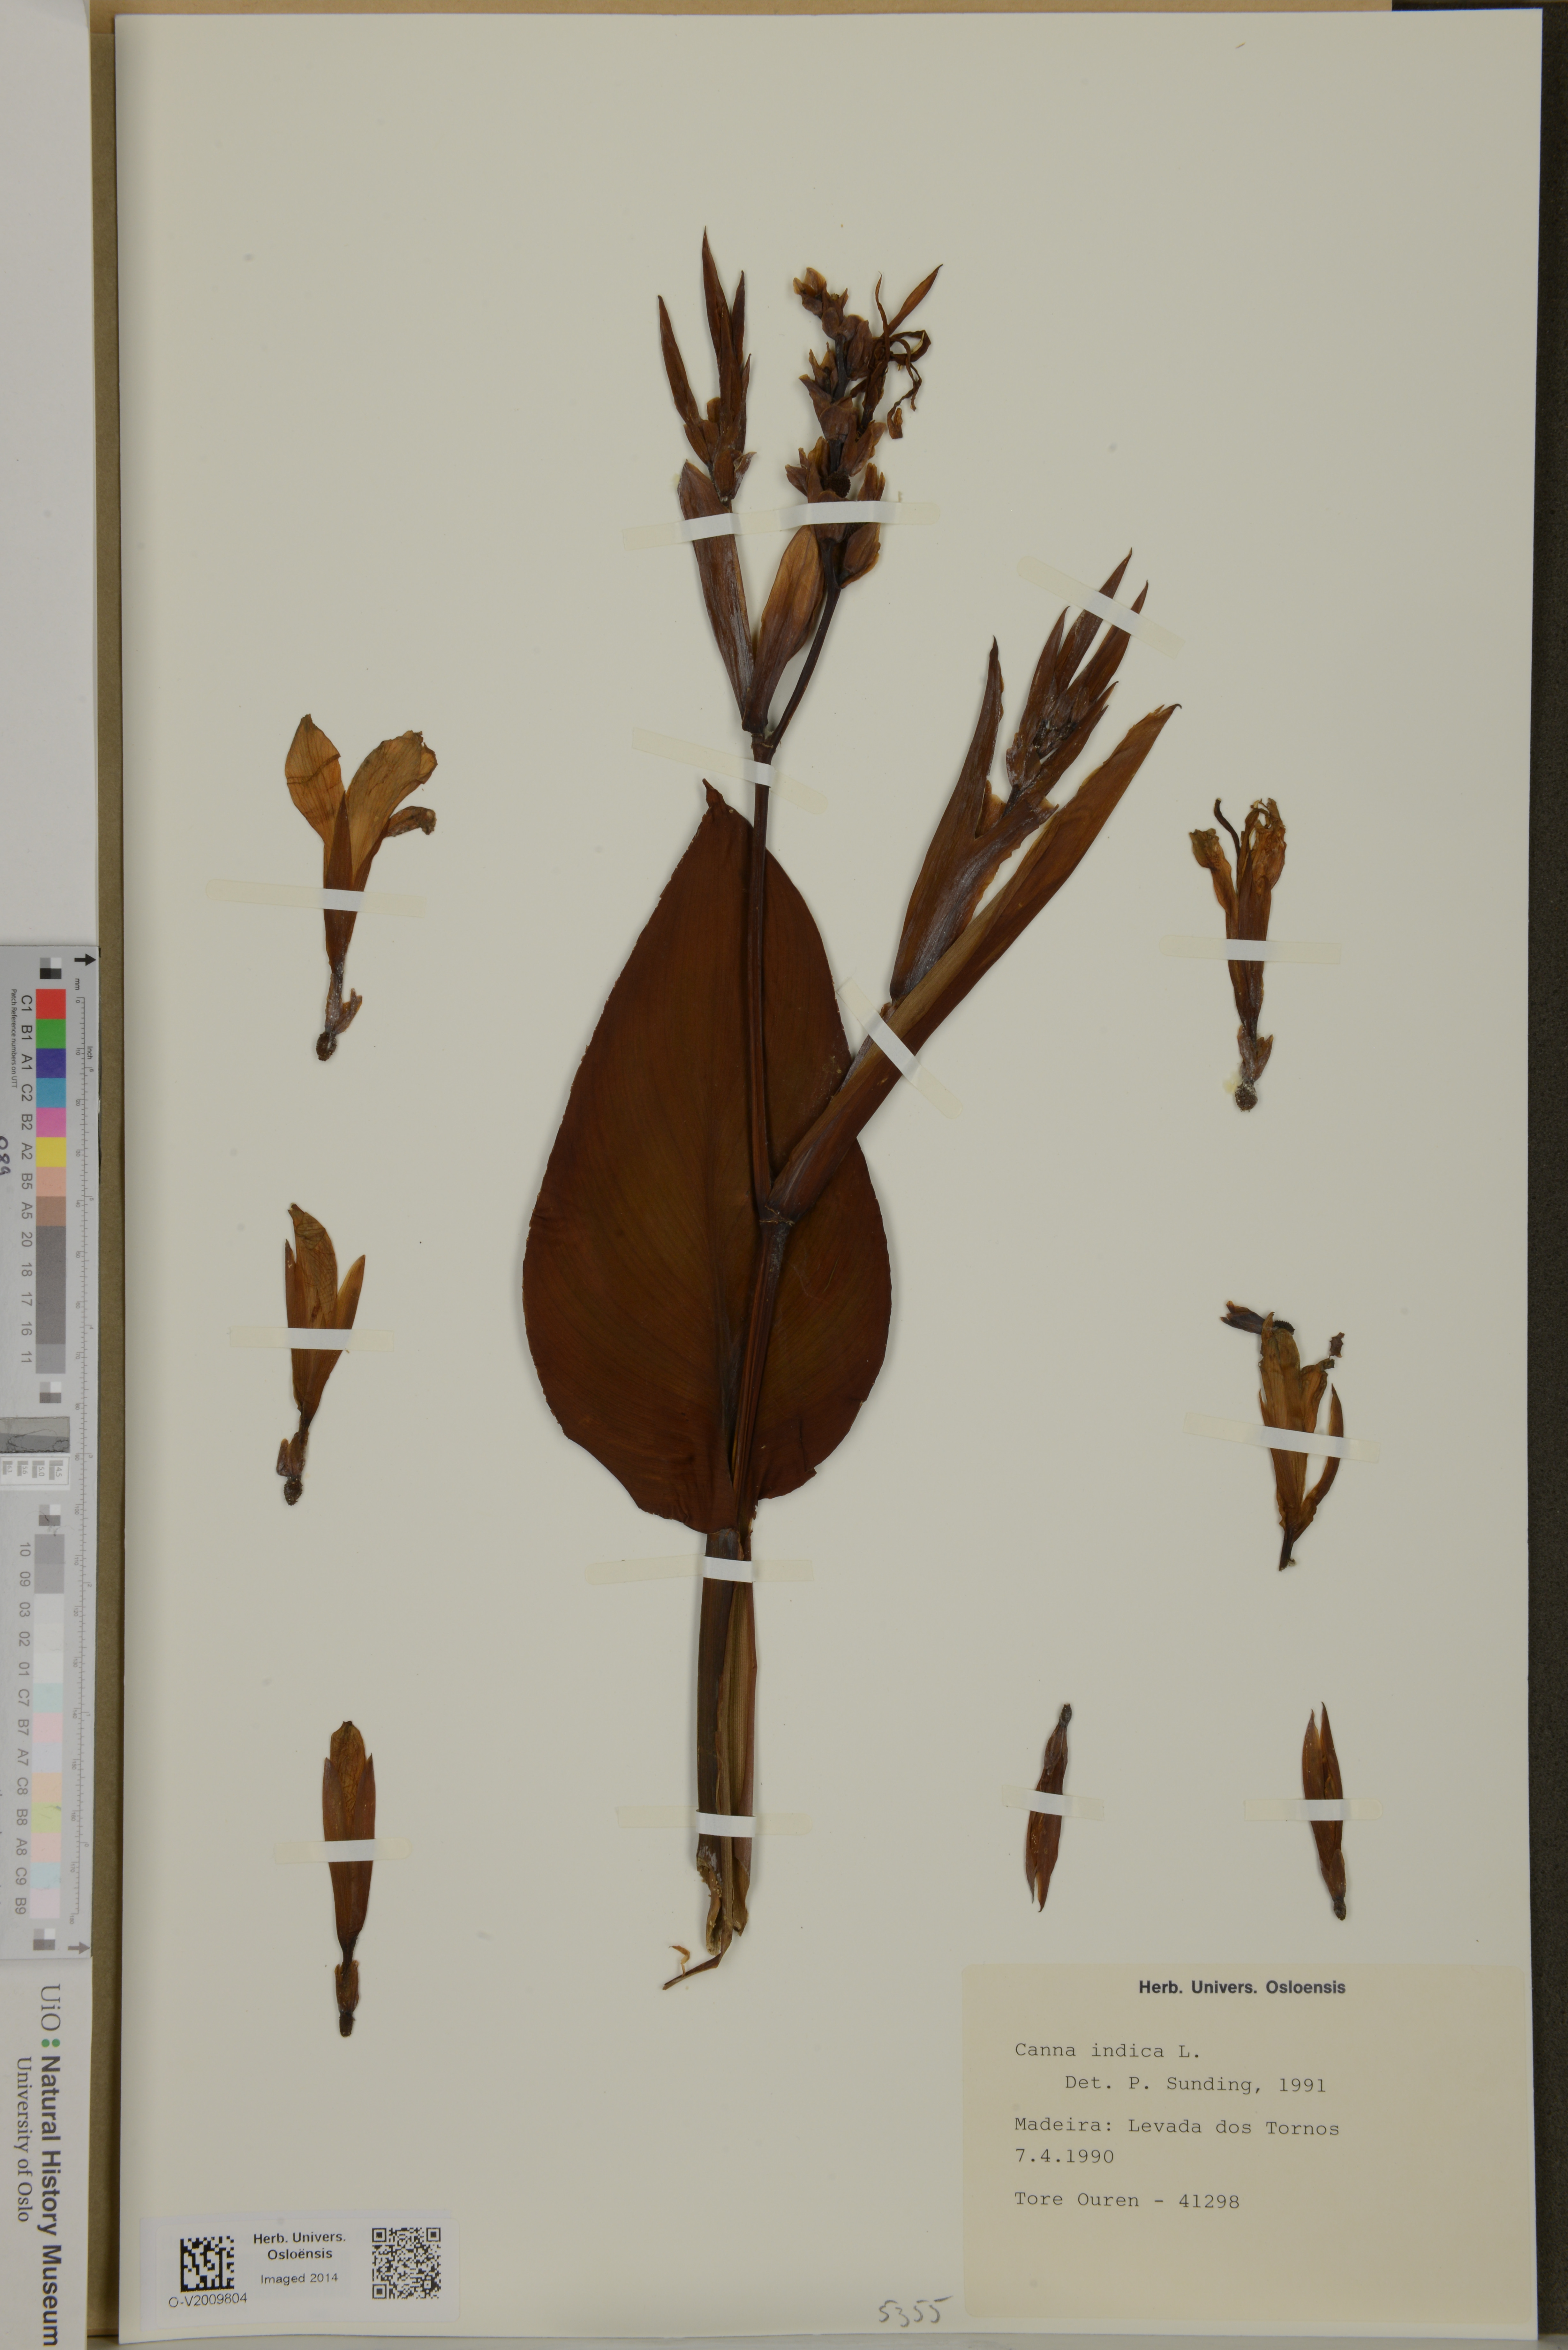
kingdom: Plantae
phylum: Tracheophyta
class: Liliopsida
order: Zingiberales
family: Cannaceae
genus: Canna
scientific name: Canna indica
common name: Indian shot
